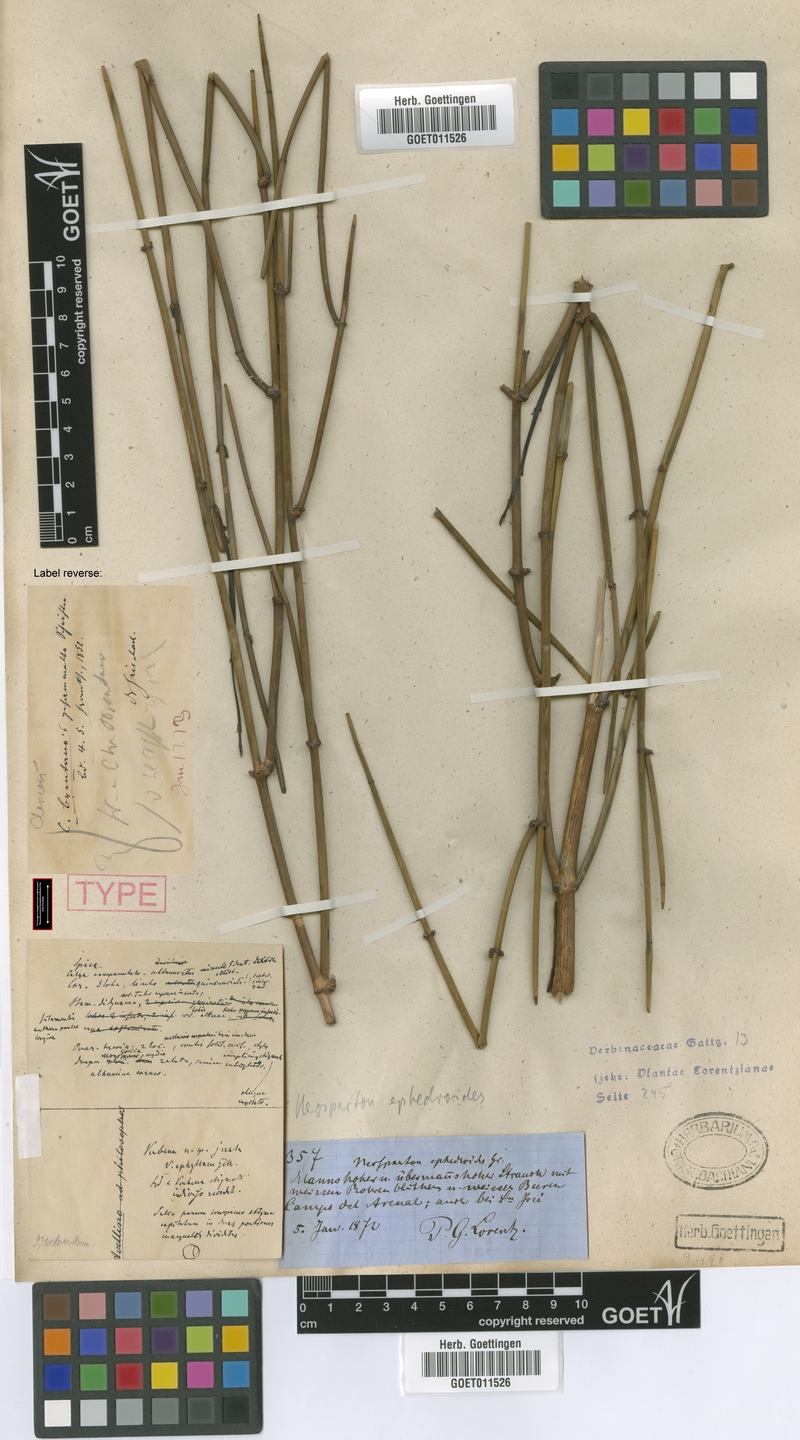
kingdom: Plantae
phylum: Tracheophyta
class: Magnoliopsida
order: Lamiales
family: Verbenaceae
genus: Neosparton
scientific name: Neosparton ephedroides
